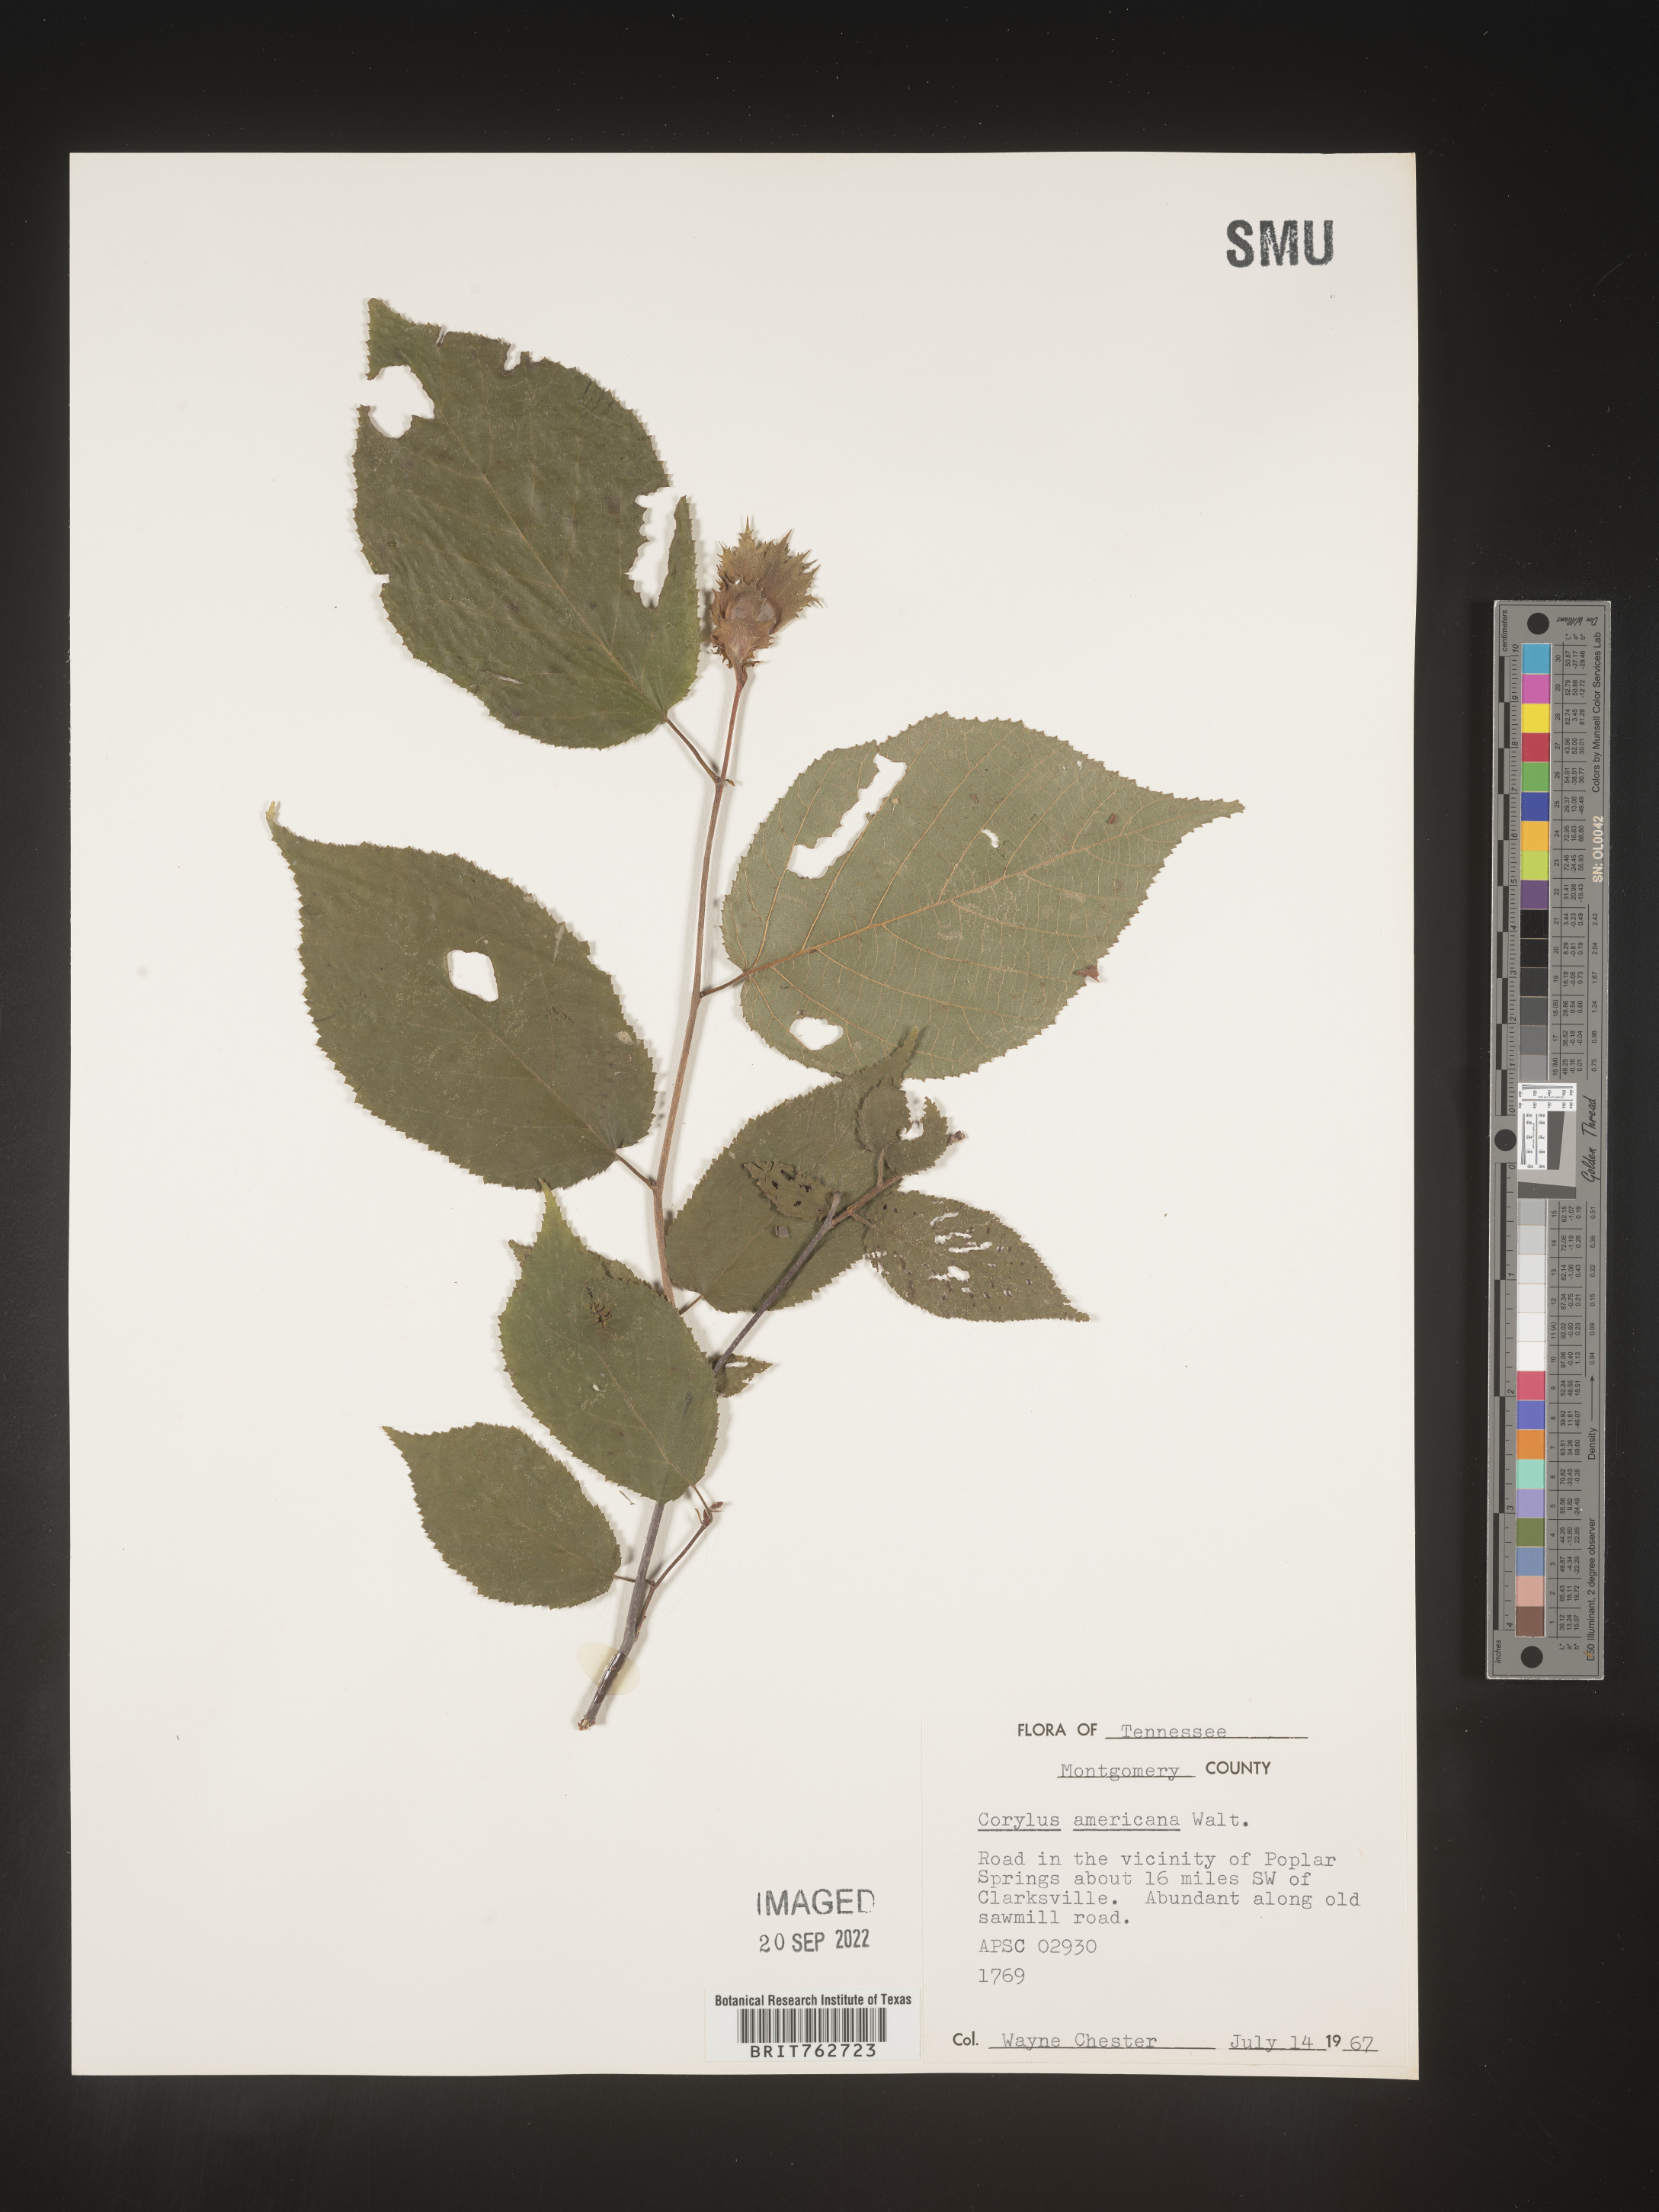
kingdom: Plantae
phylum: Tracheophyta
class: Magnoliopsida
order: Fagales
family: Betulaceae
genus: Corylus
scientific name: Corylus americana
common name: American hazel
